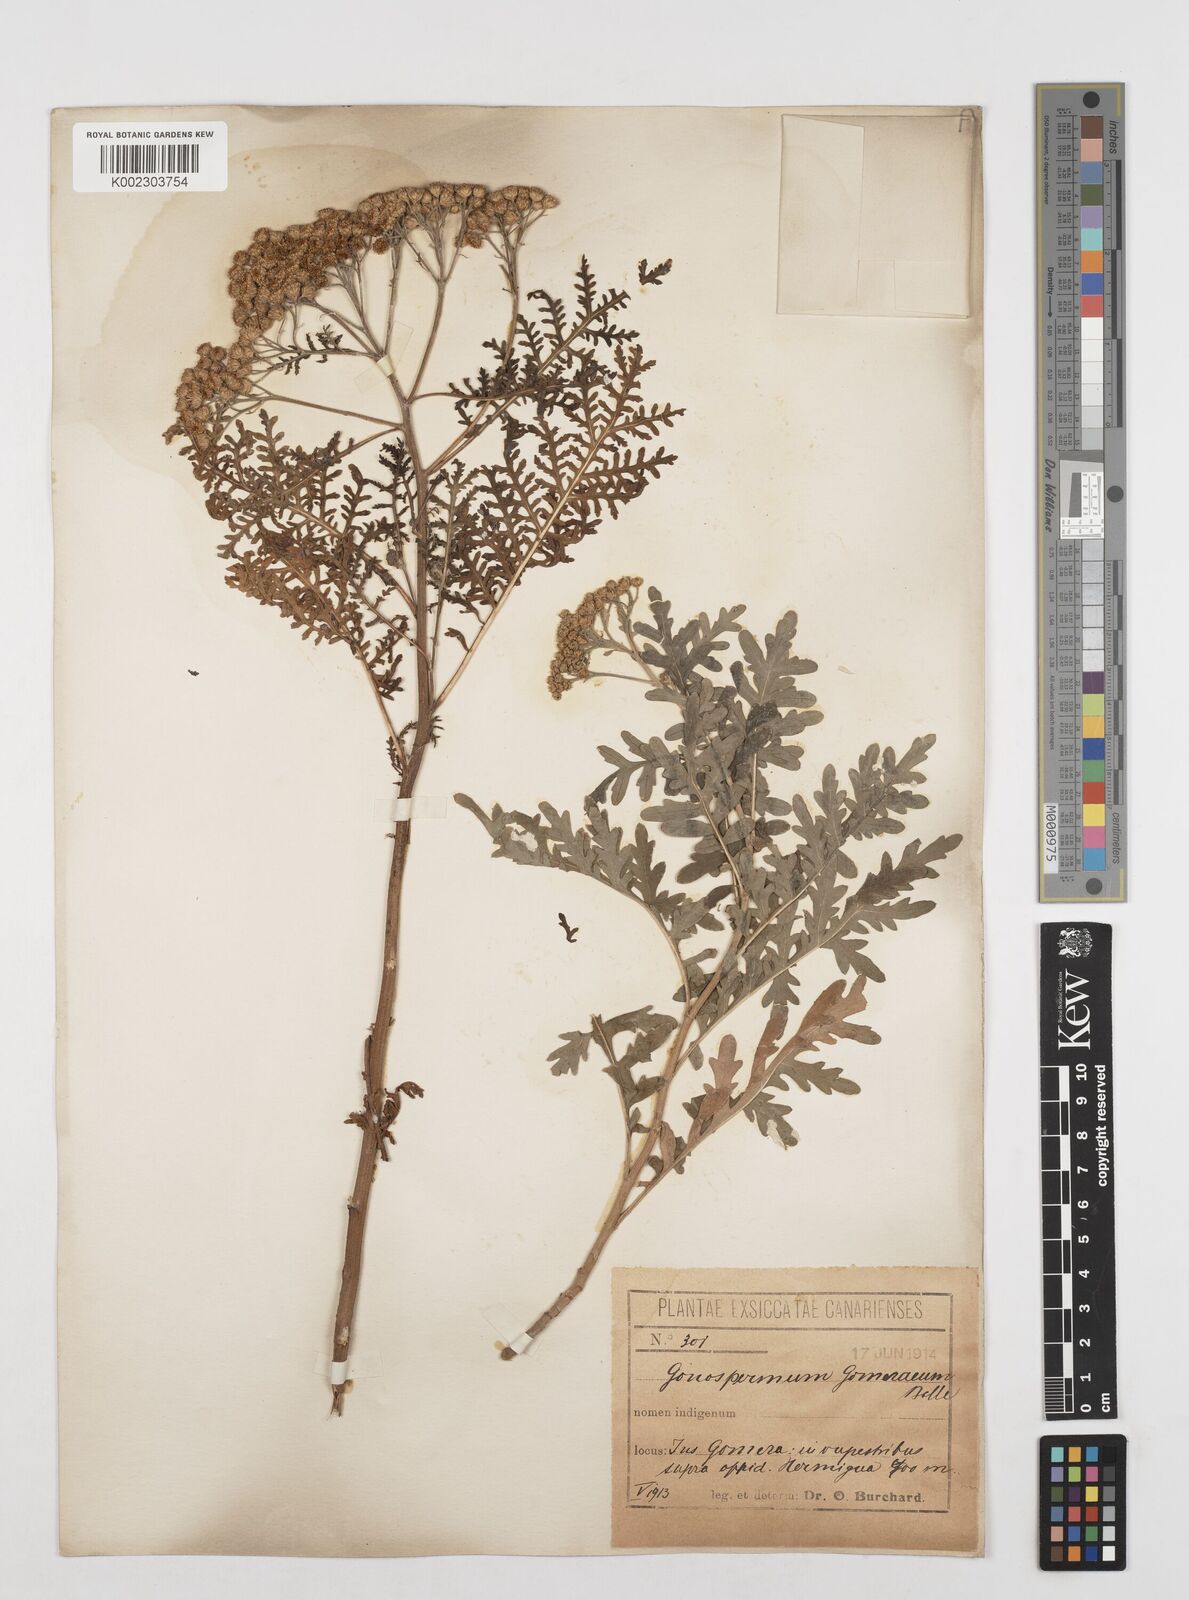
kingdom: Plantae
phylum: Tracheophyta
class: Magnoliopsida
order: Asterales
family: Asteraceae
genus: Gonospermum
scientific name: Gonospermum gomerae
